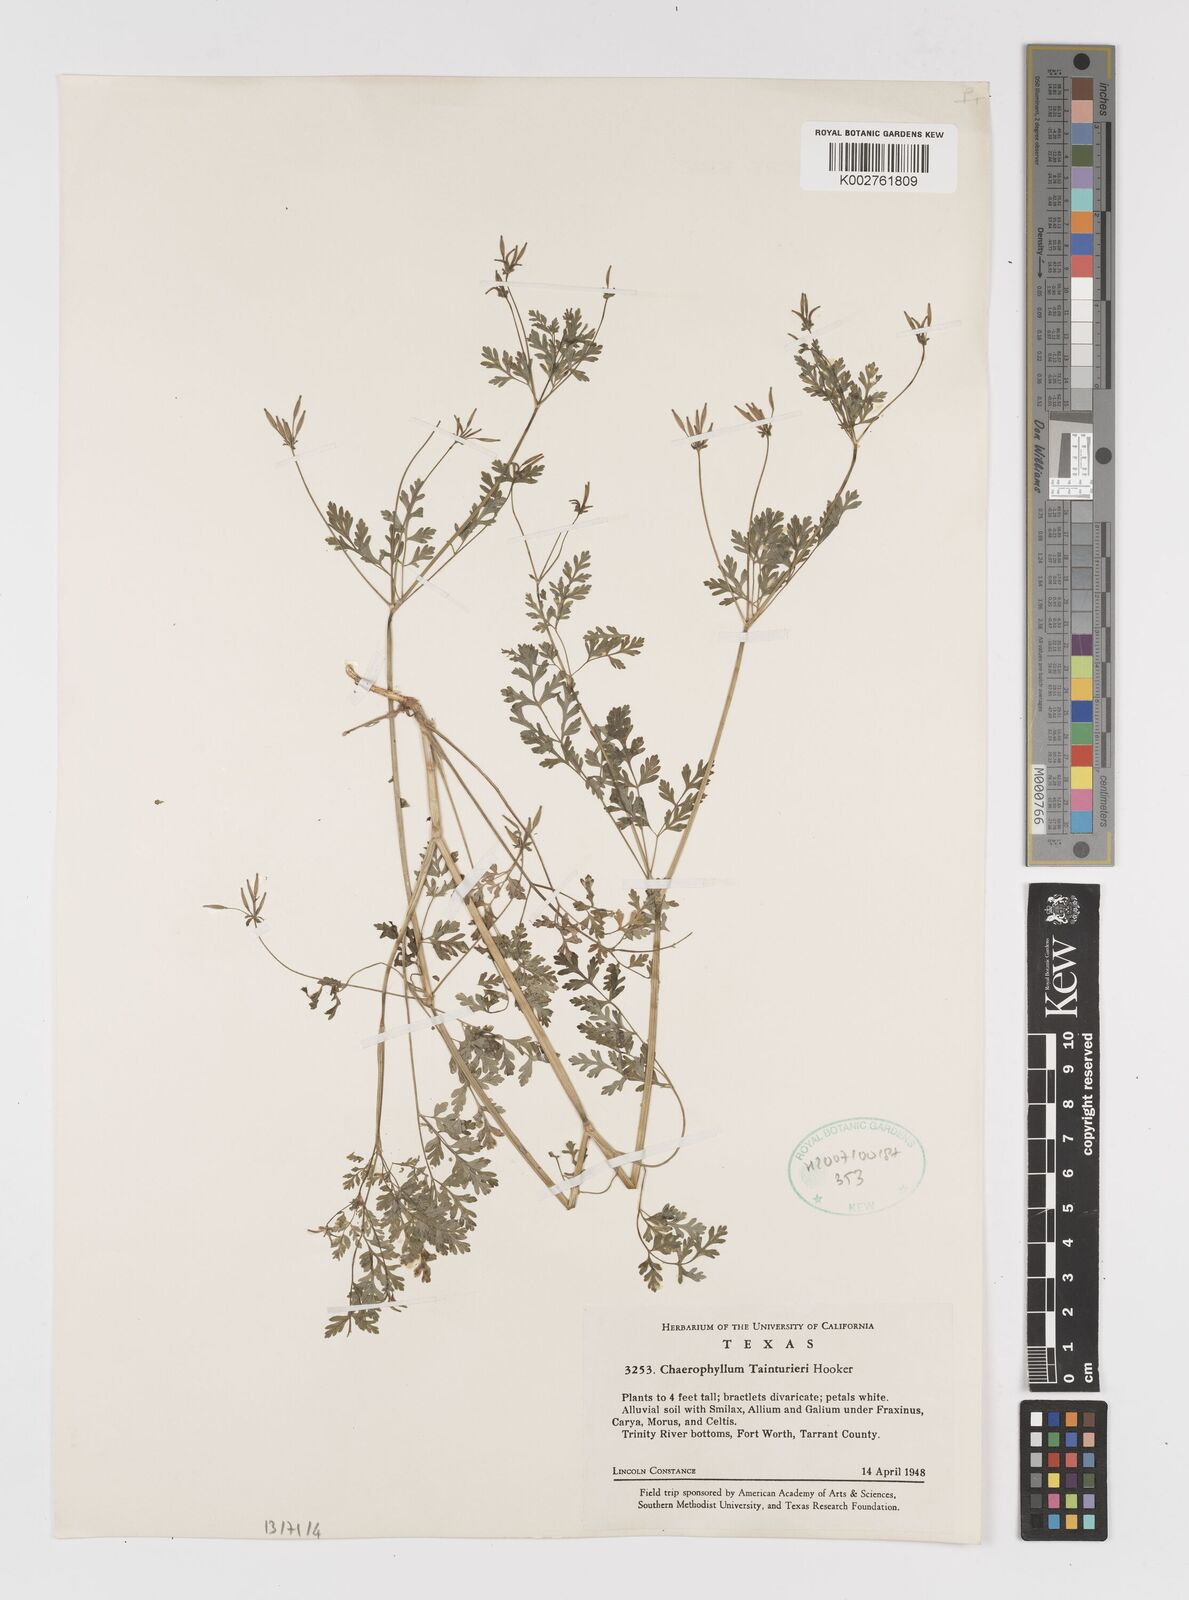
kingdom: Plantae
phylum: Tracheophyta
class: Magnoliopsida
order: Apiales
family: Apiaceae
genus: Chaerophyllum
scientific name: Chaerophyllum tainturieri
